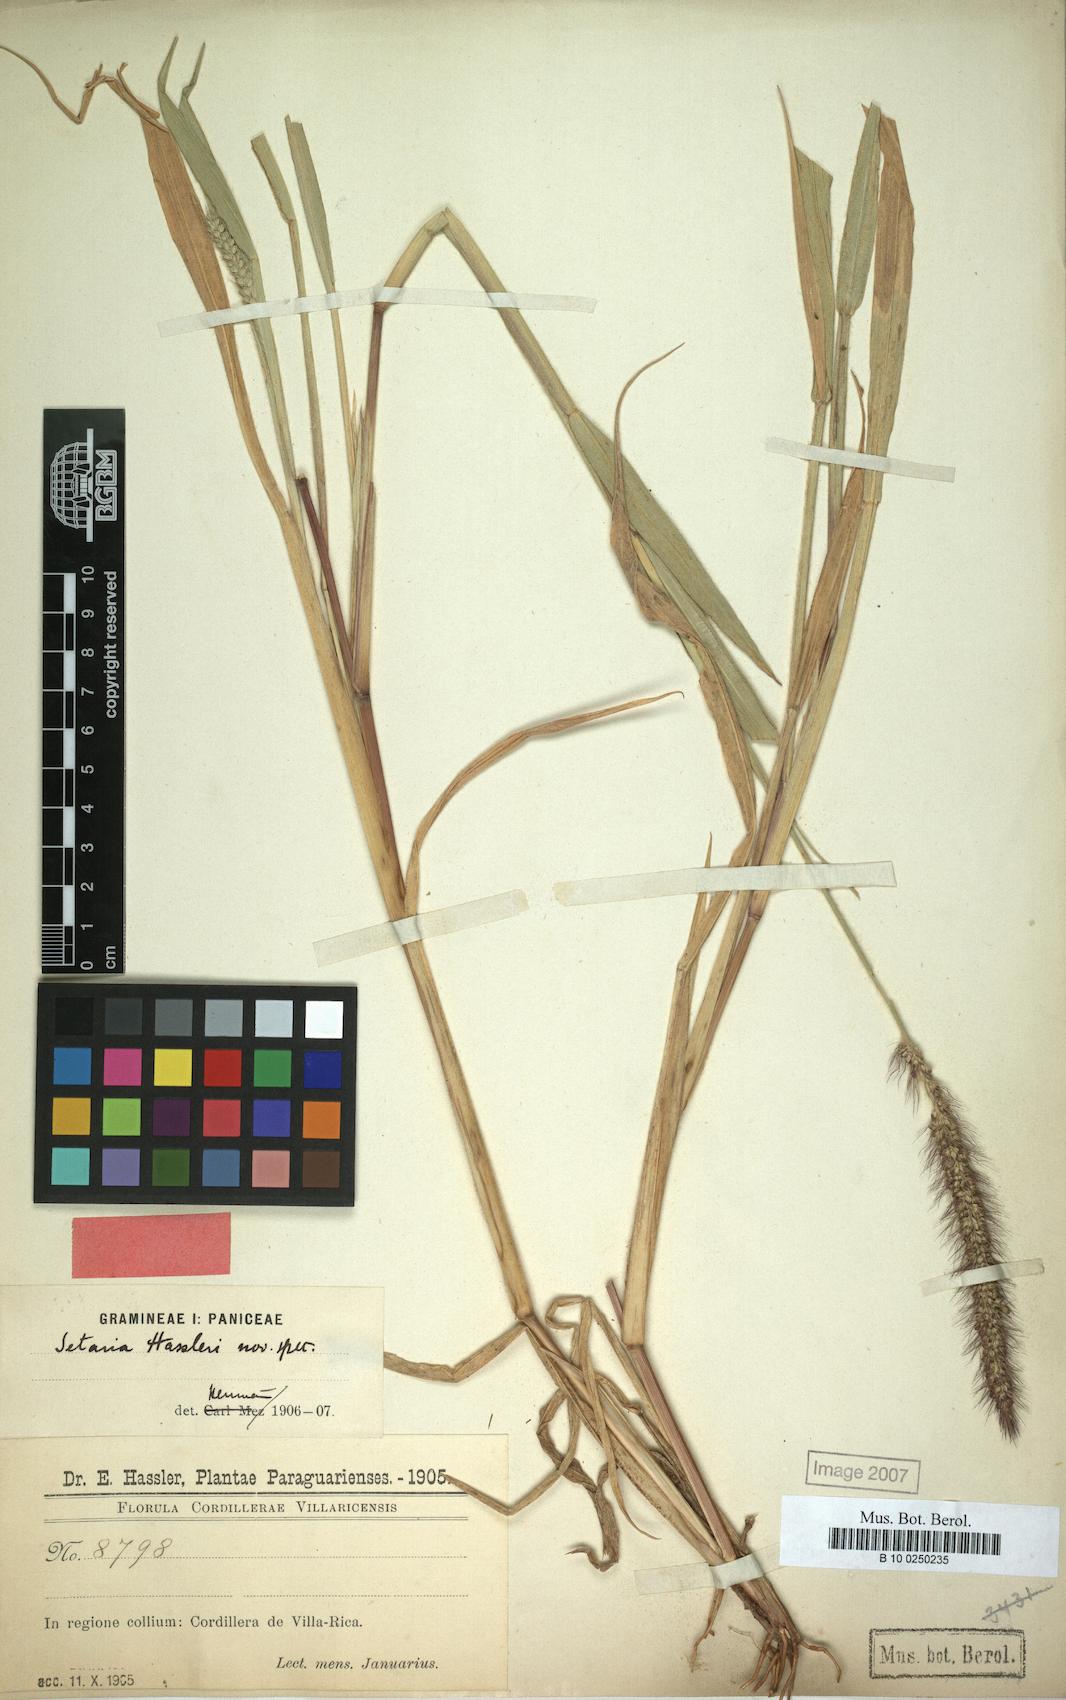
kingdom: Plantae
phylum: Tracheophyta
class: Liliopsida
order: Poales
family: Poaceae
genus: Setaria
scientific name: Setaria hassleri
